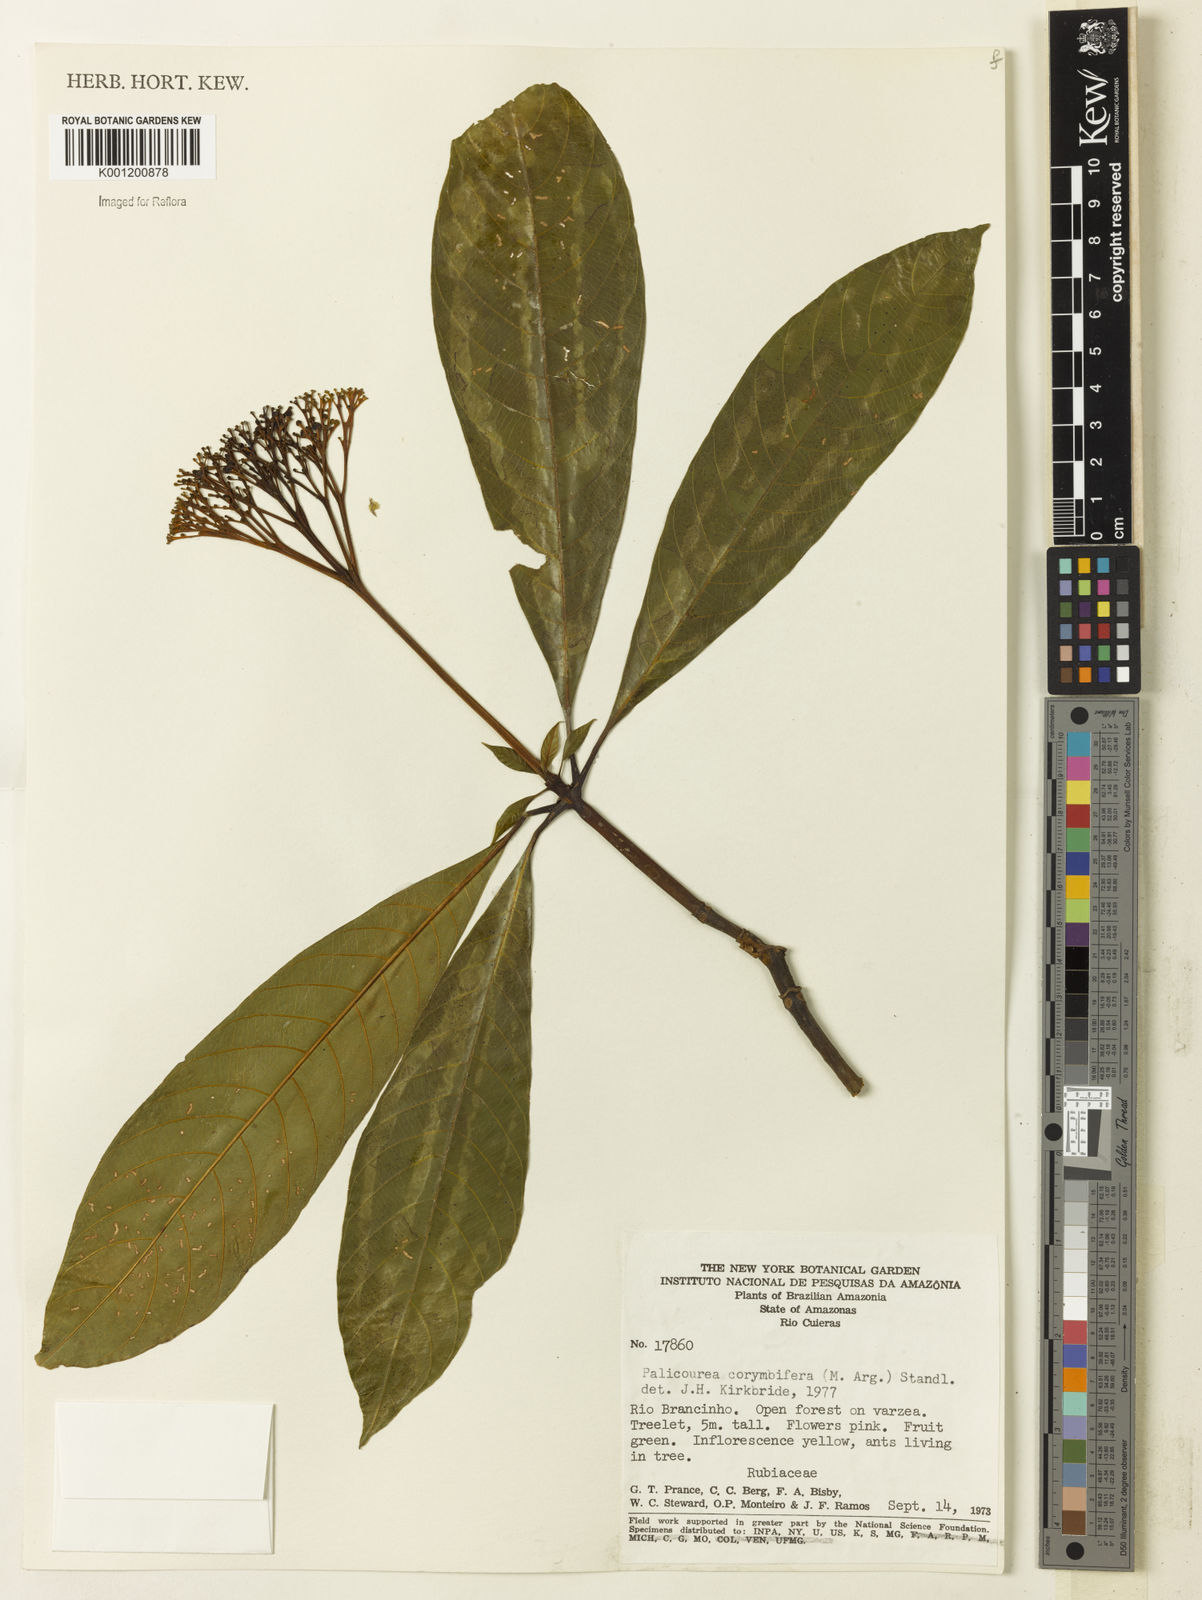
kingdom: Plantae
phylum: Tracheophyta
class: Magnoliopsida
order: Gentianales
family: Rubiaceae
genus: Palicourea
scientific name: Palicourea
